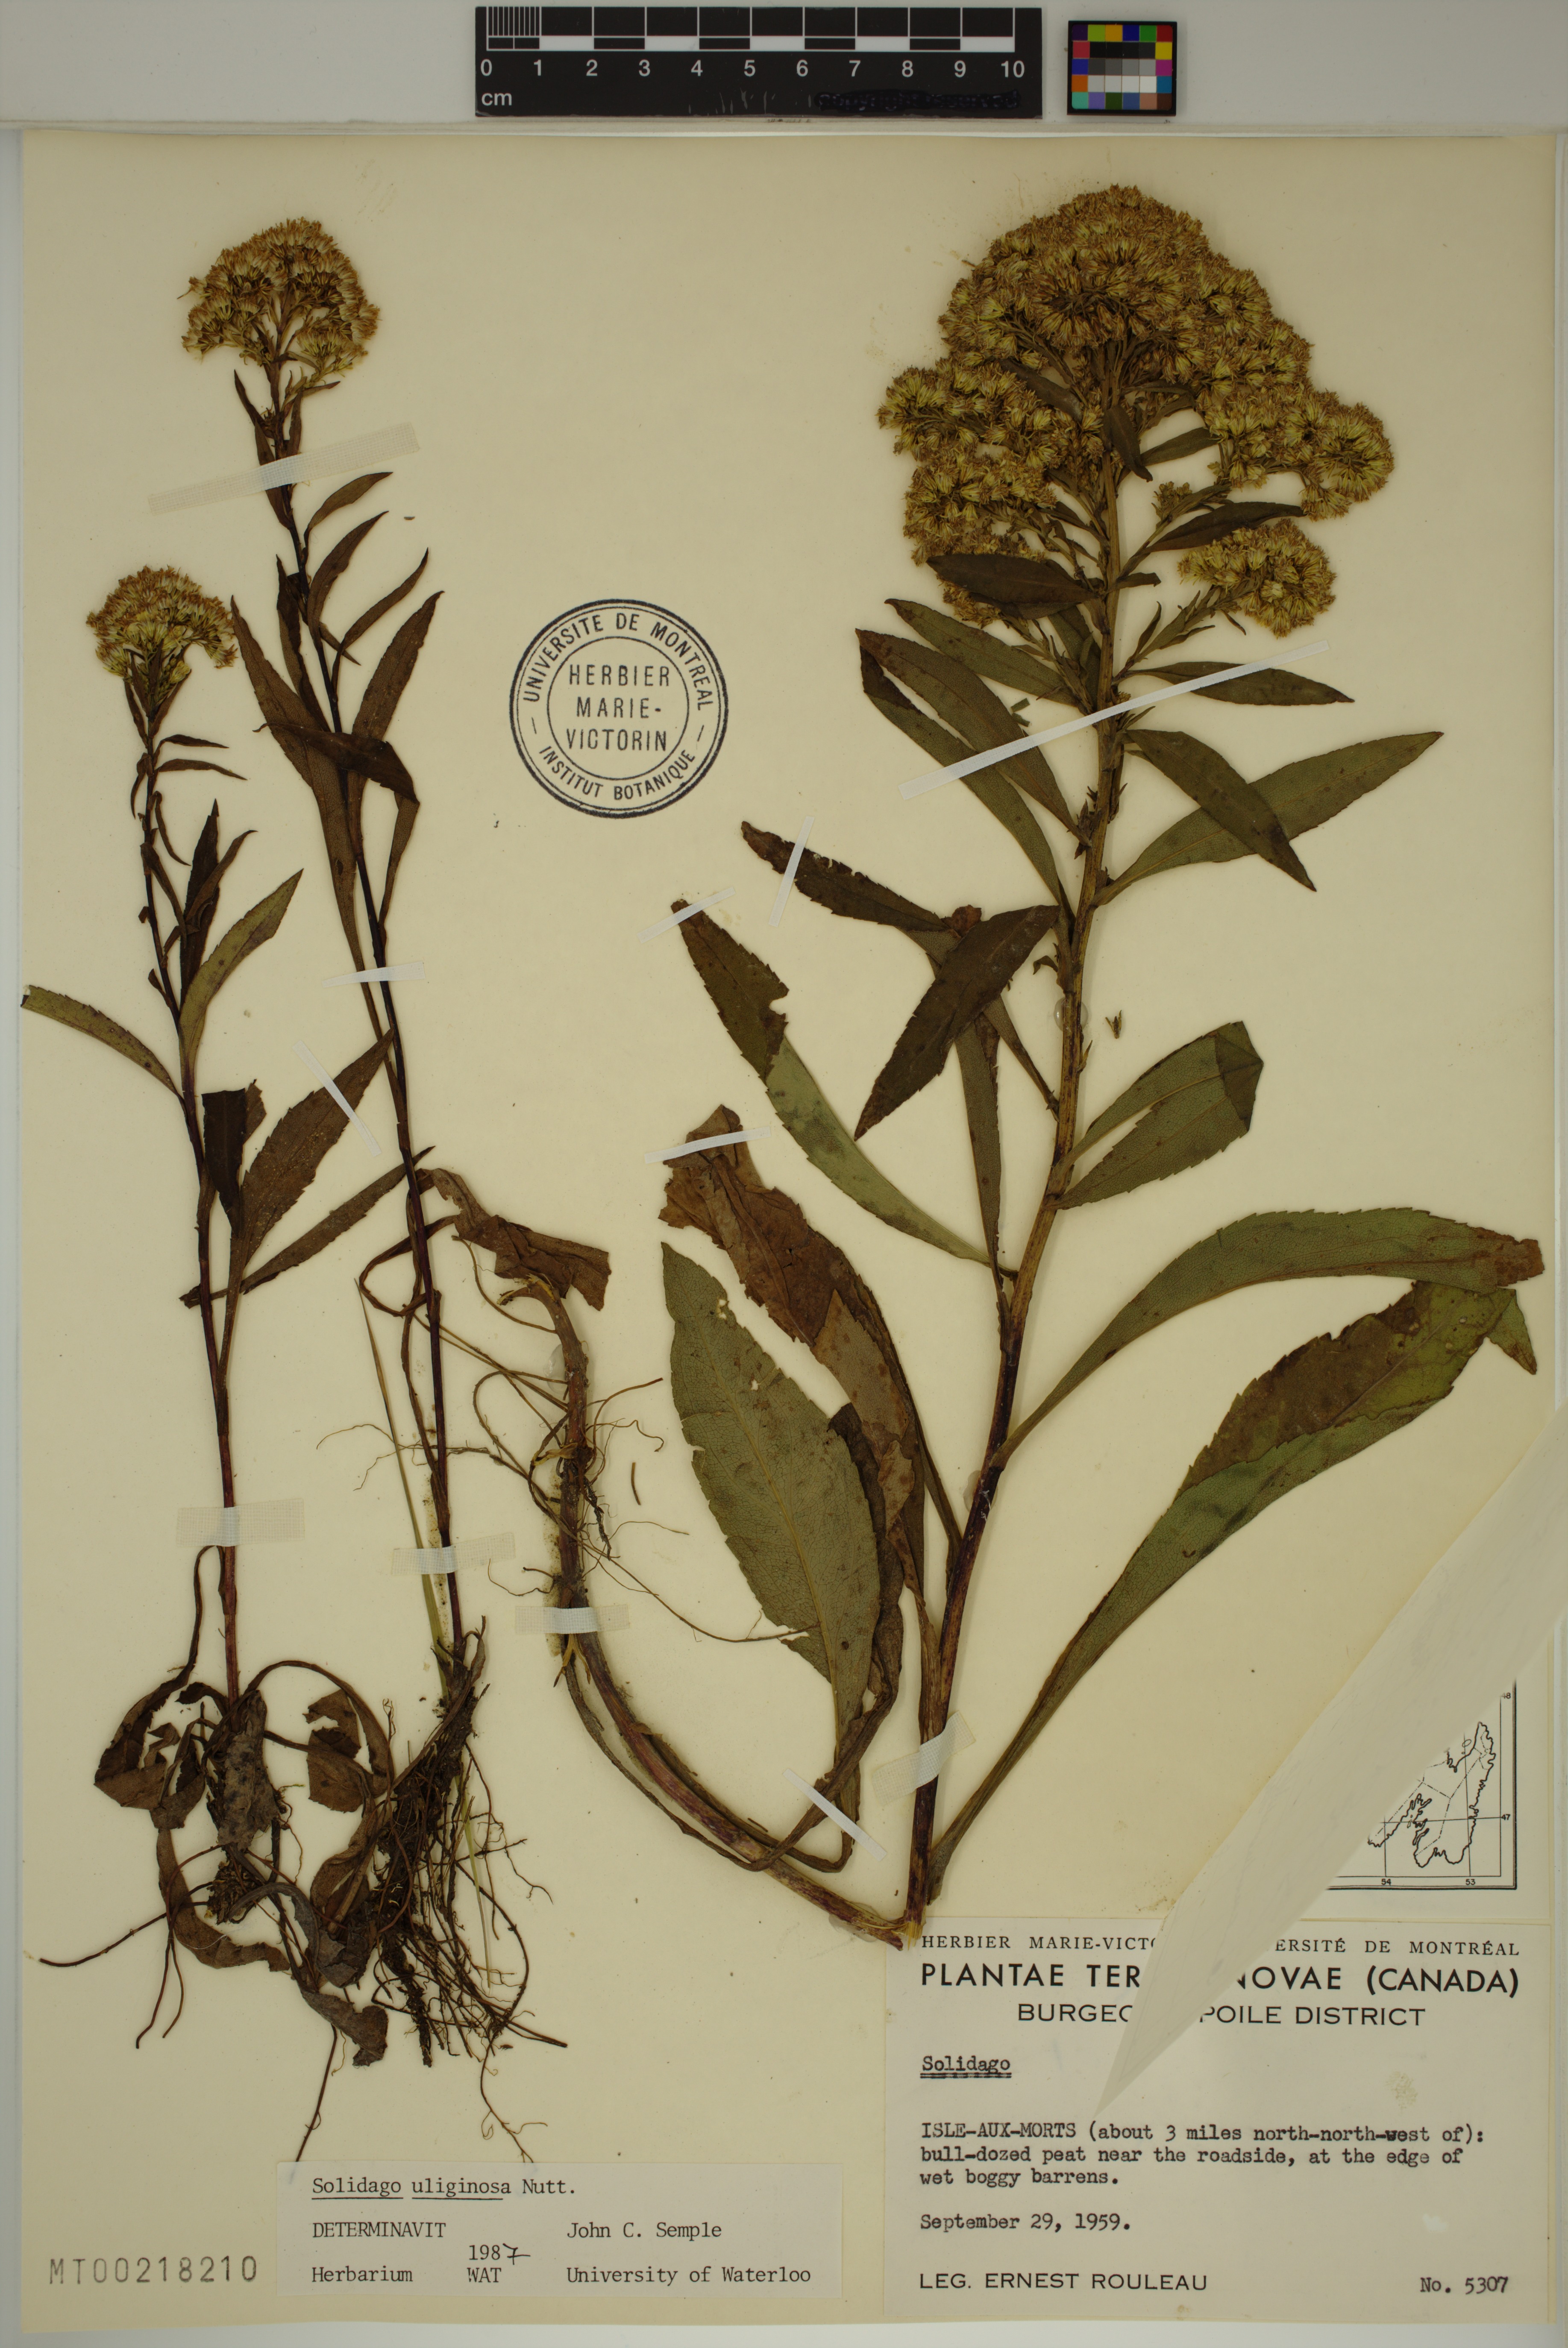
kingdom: Plantae
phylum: Tracheophyta
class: Magnoliopsida
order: Asterales
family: Asteraceae
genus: Solidago
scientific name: Solidago uliginosa
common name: Bog goldenrod
